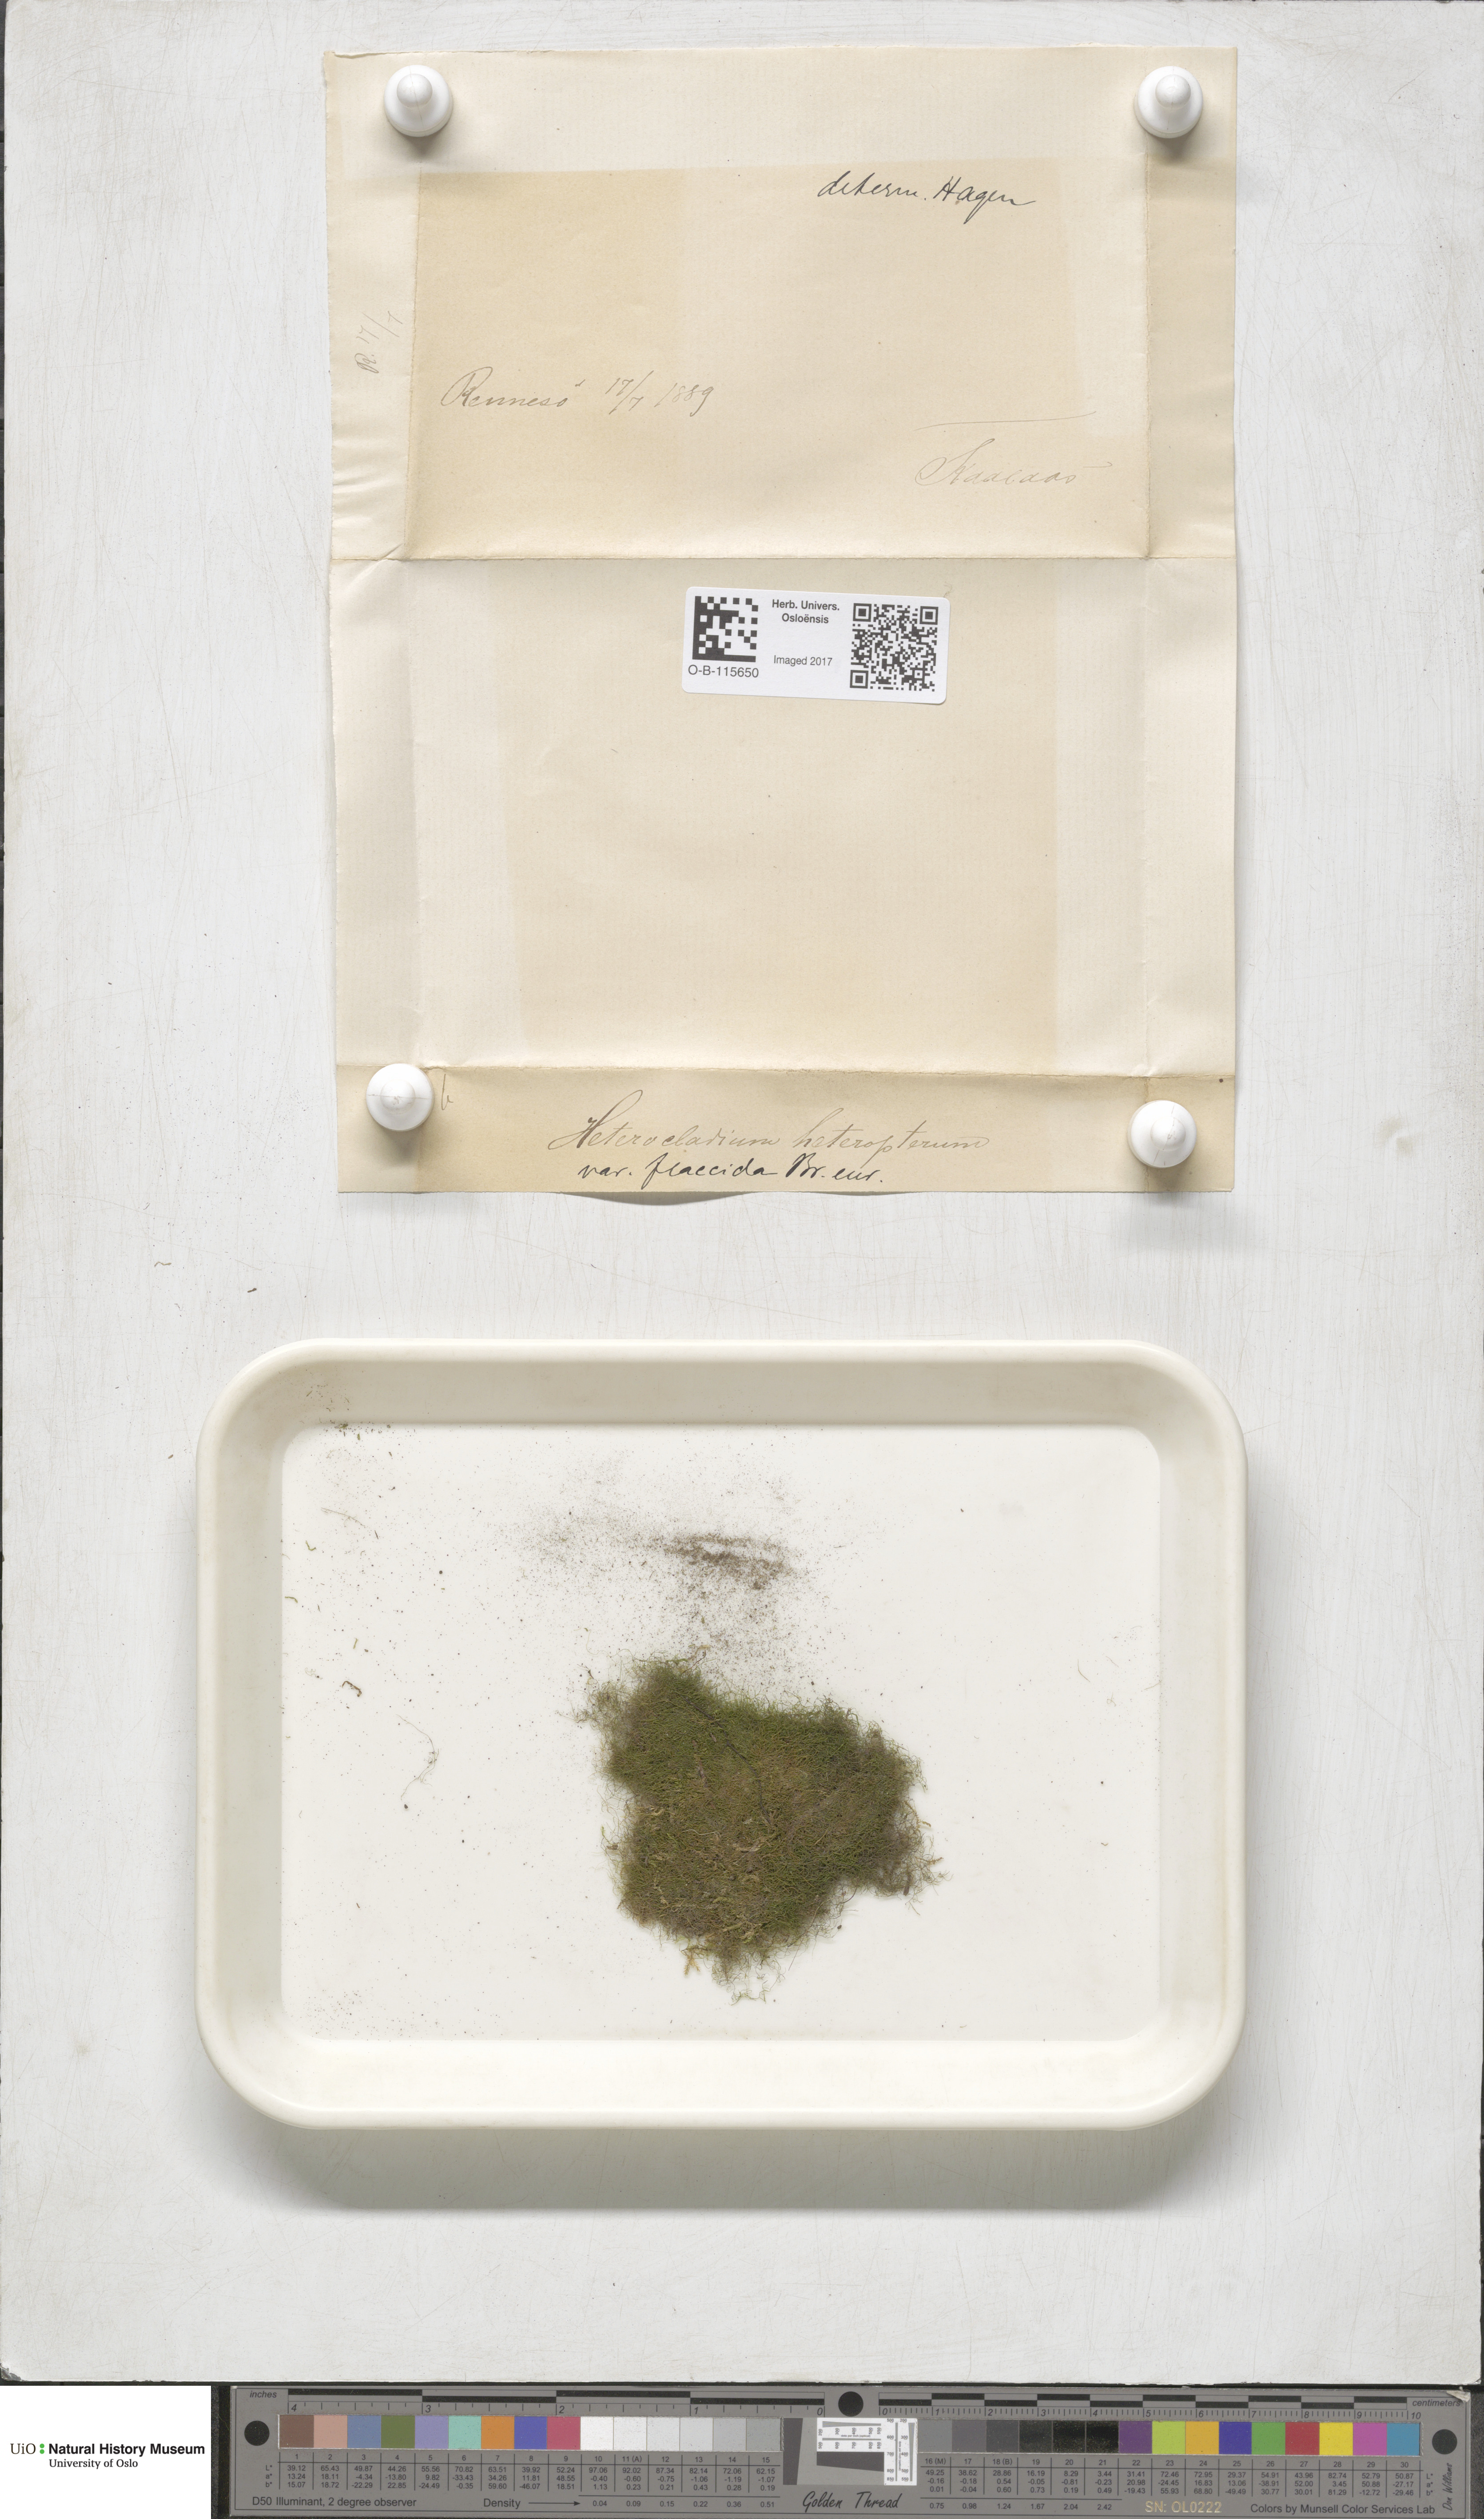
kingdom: Plantae
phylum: Bryophyta
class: Bryopsida
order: Hypnales
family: Lembophyllaceae
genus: Heterocladium
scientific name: Heterocladium flaccidum
